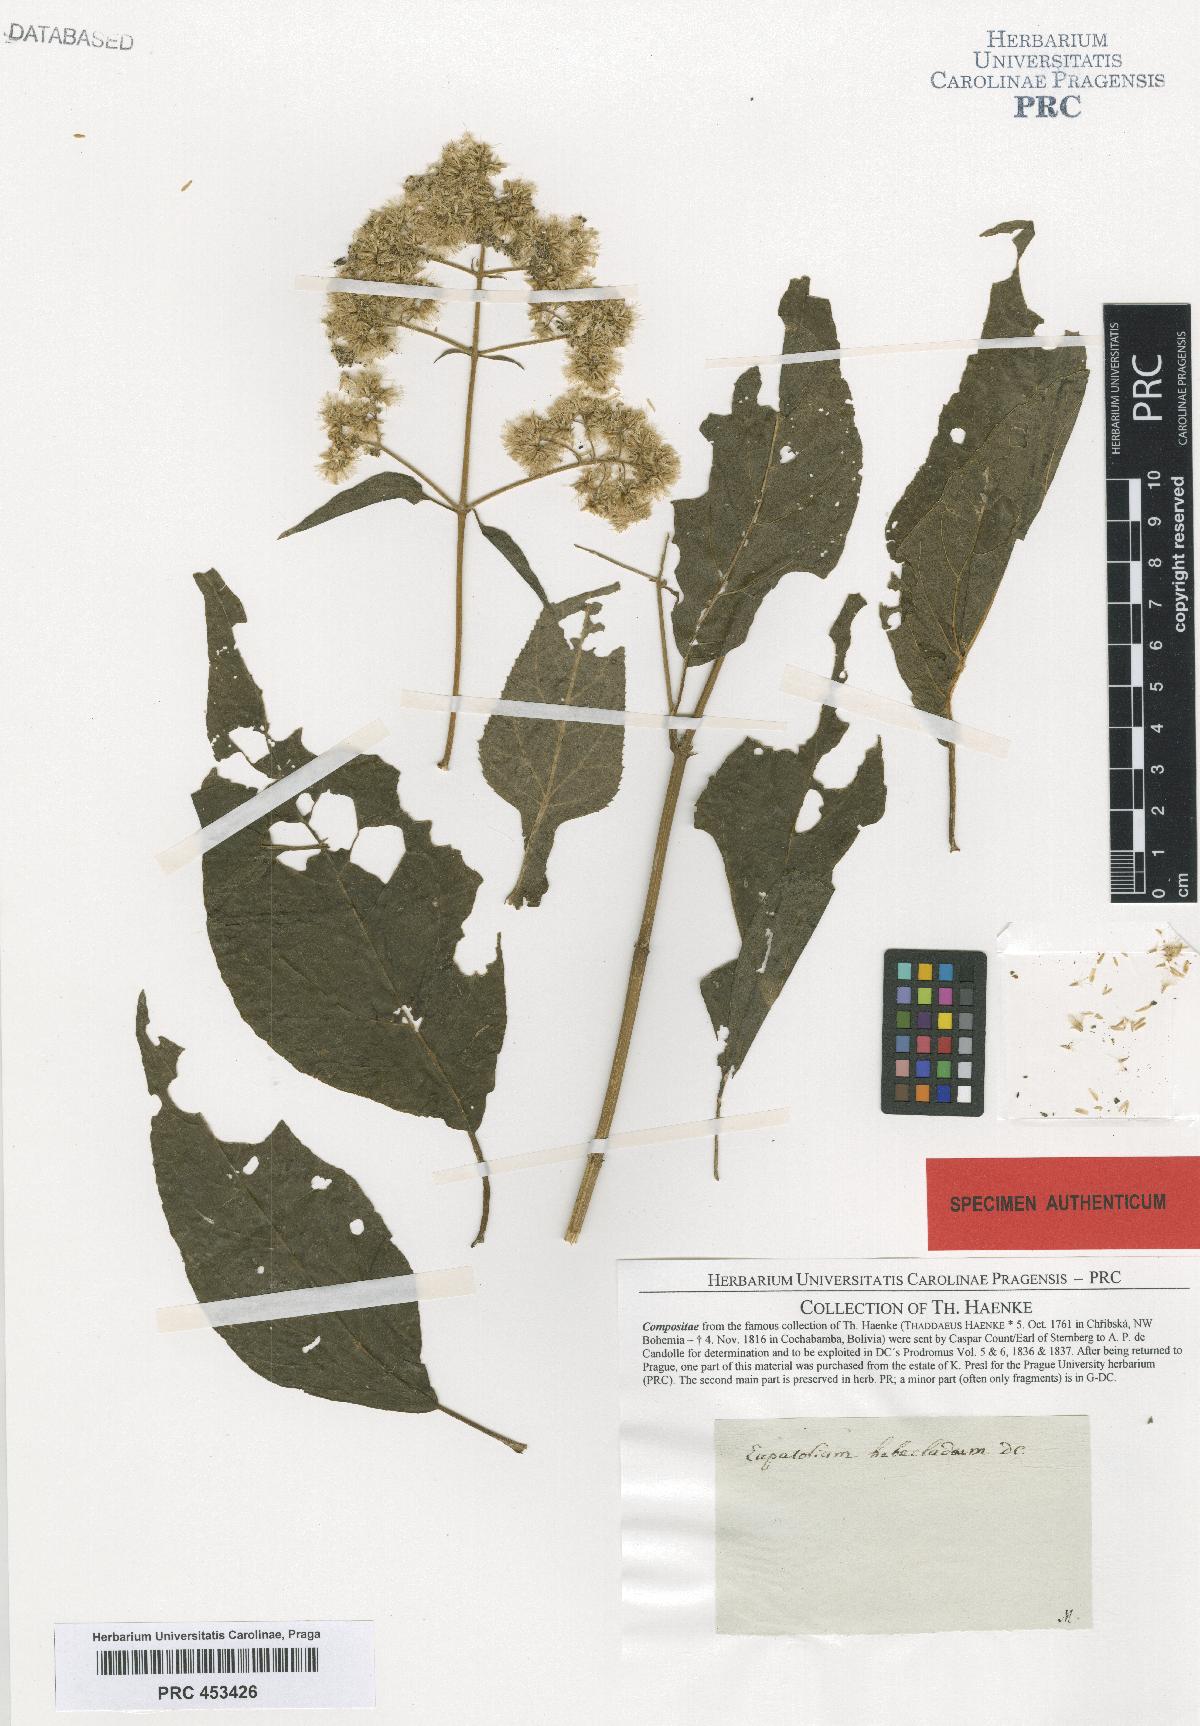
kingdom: Plantae
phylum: Tracheophyta
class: Magnoliopsida
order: Asterales
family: Asteraceae
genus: Barrosoa
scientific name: Barrosoa candolleana
